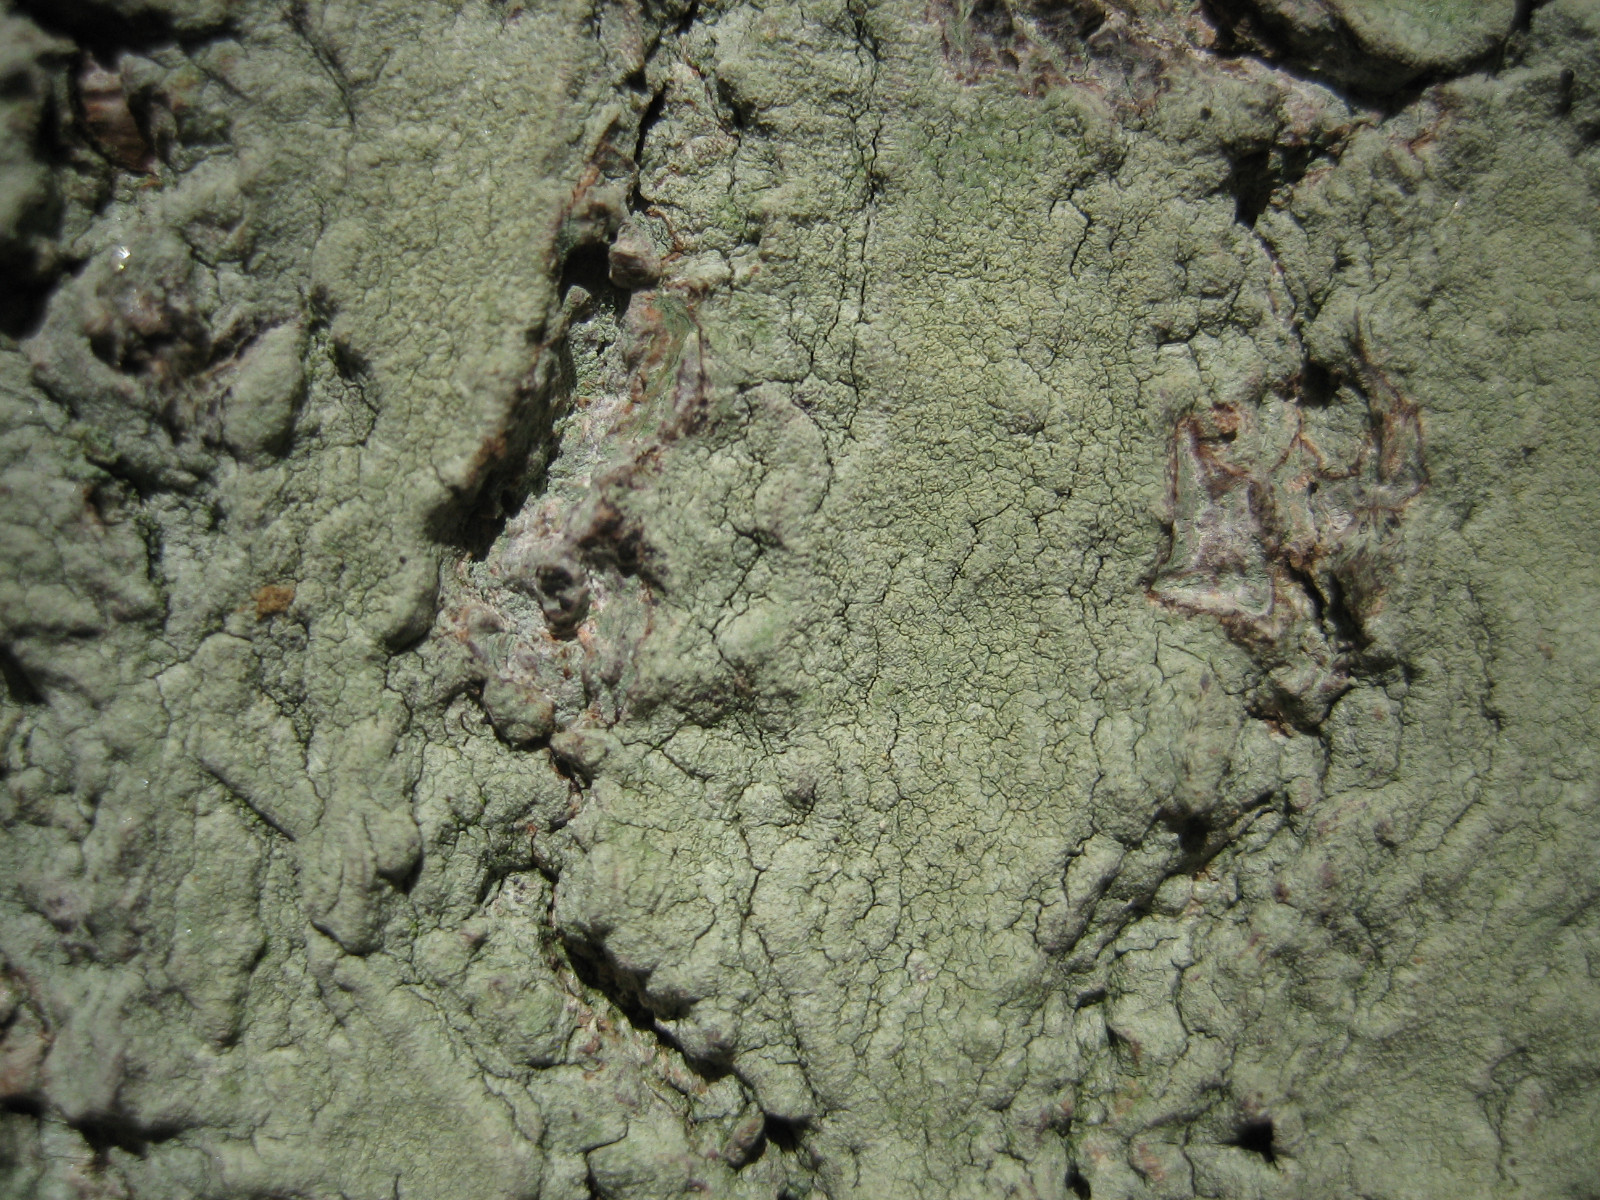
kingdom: Fungi
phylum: Ascomycota
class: Lecanoromycetes
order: Pertusariales
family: Pertusariaceae
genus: Pertusaria
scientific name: Pertusaria flavida
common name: gul prikvortelav
